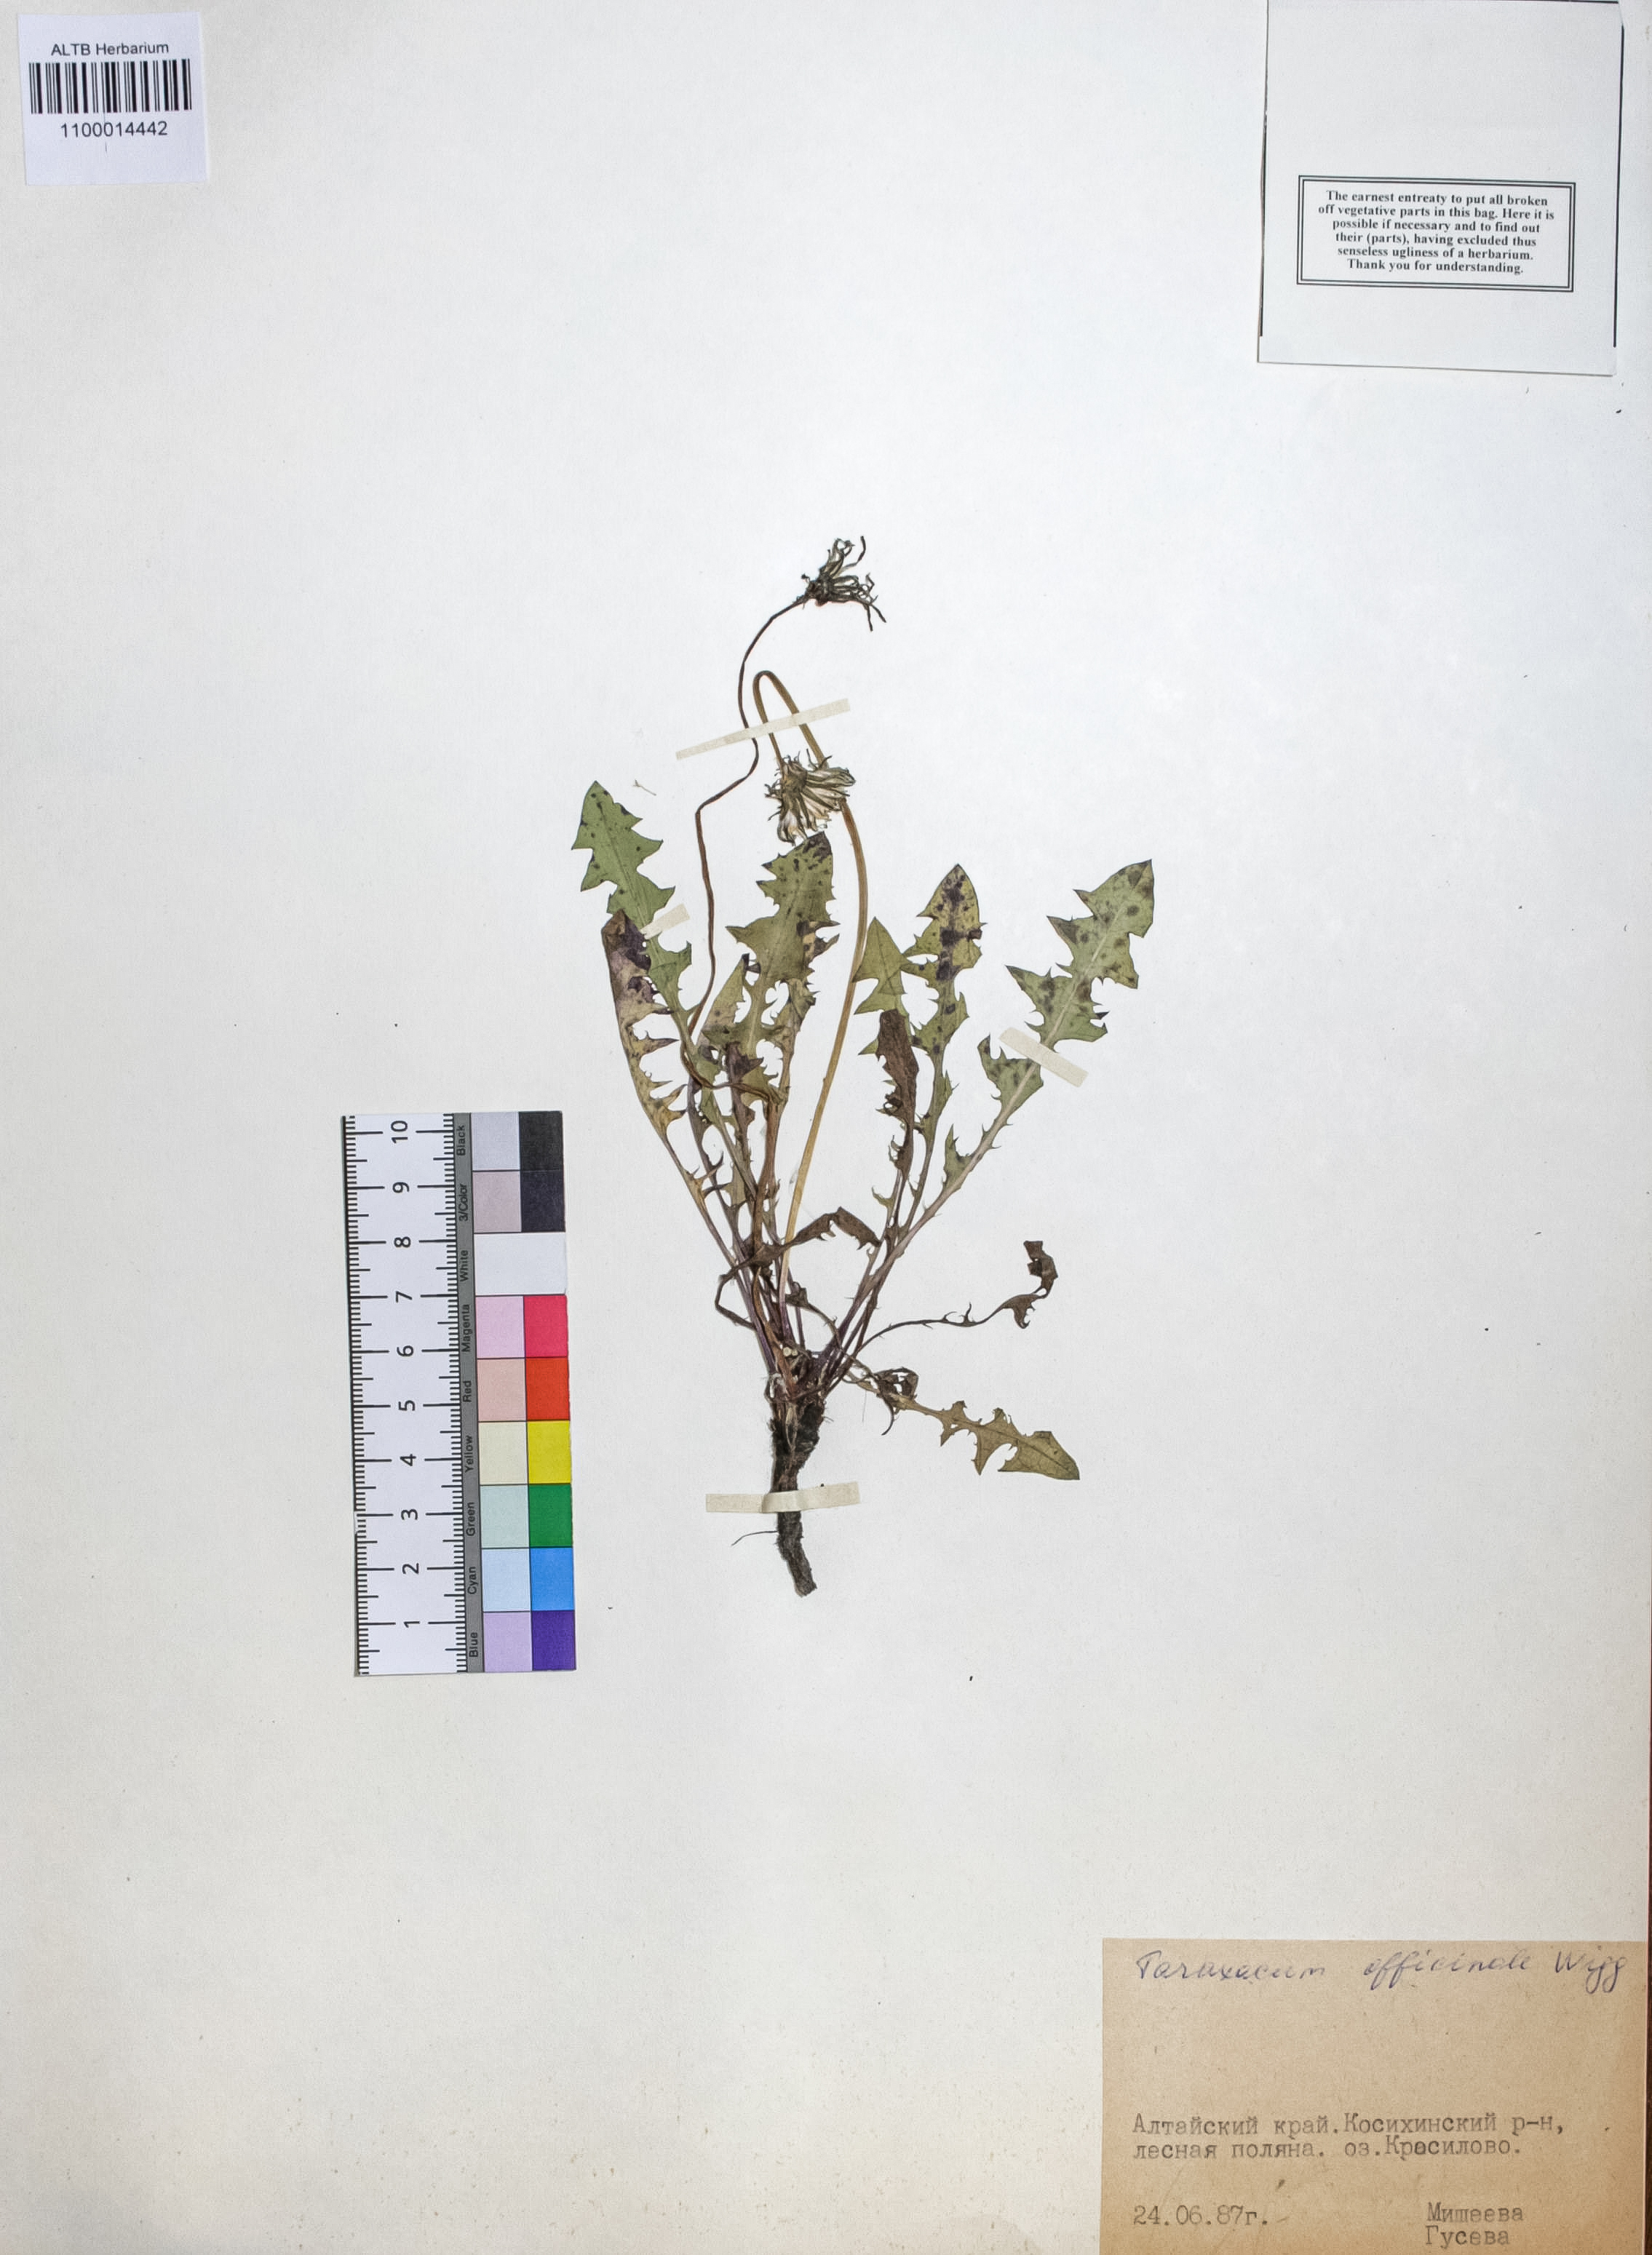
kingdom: Plantae
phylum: Tracheophyta
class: Magnoliopsida
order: Asterales
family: Asteraceae
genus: Taraxacum
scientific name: Taraxacum officinale
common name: Common dandelion
